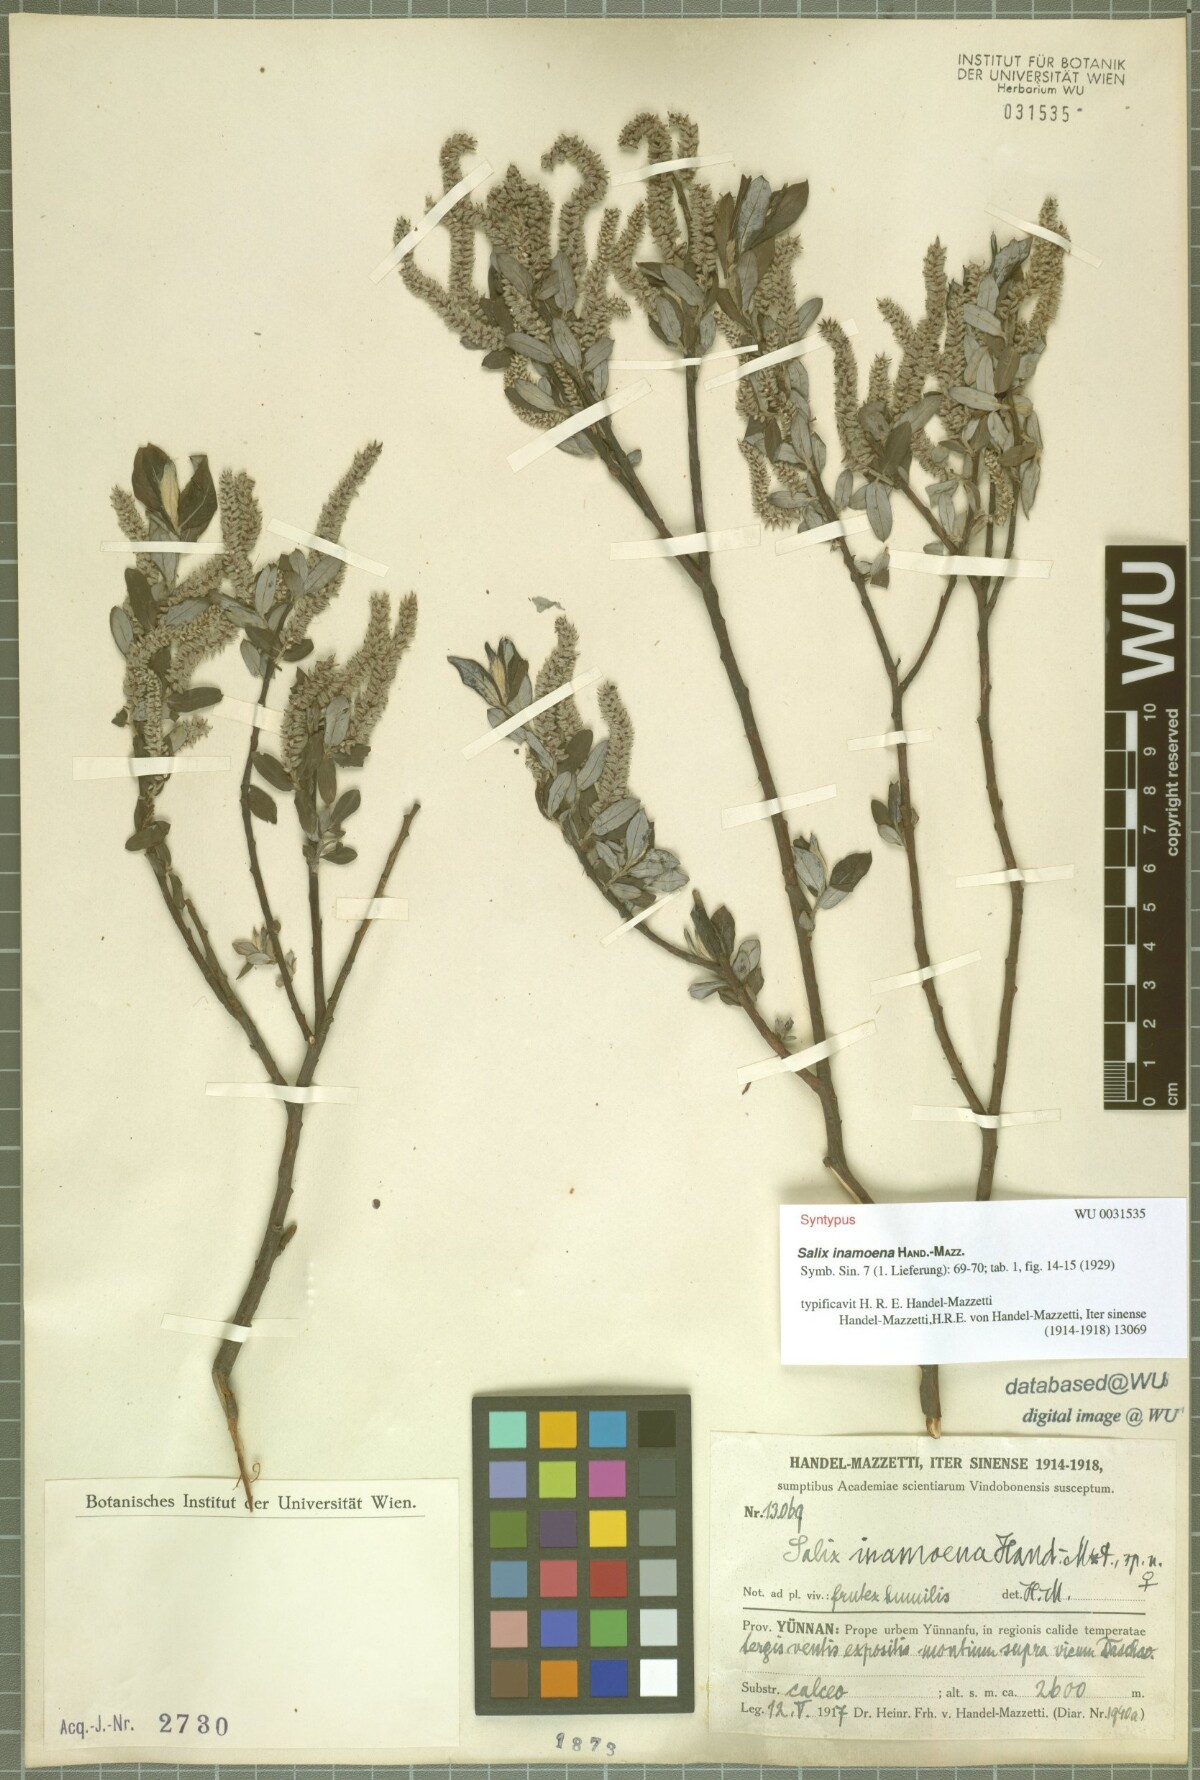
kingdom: Plantae
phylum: Tracheophyta
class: Magnoliopsida
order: Malpighiales
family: Salicaceae
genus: Salix
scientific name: Salix inamoena
